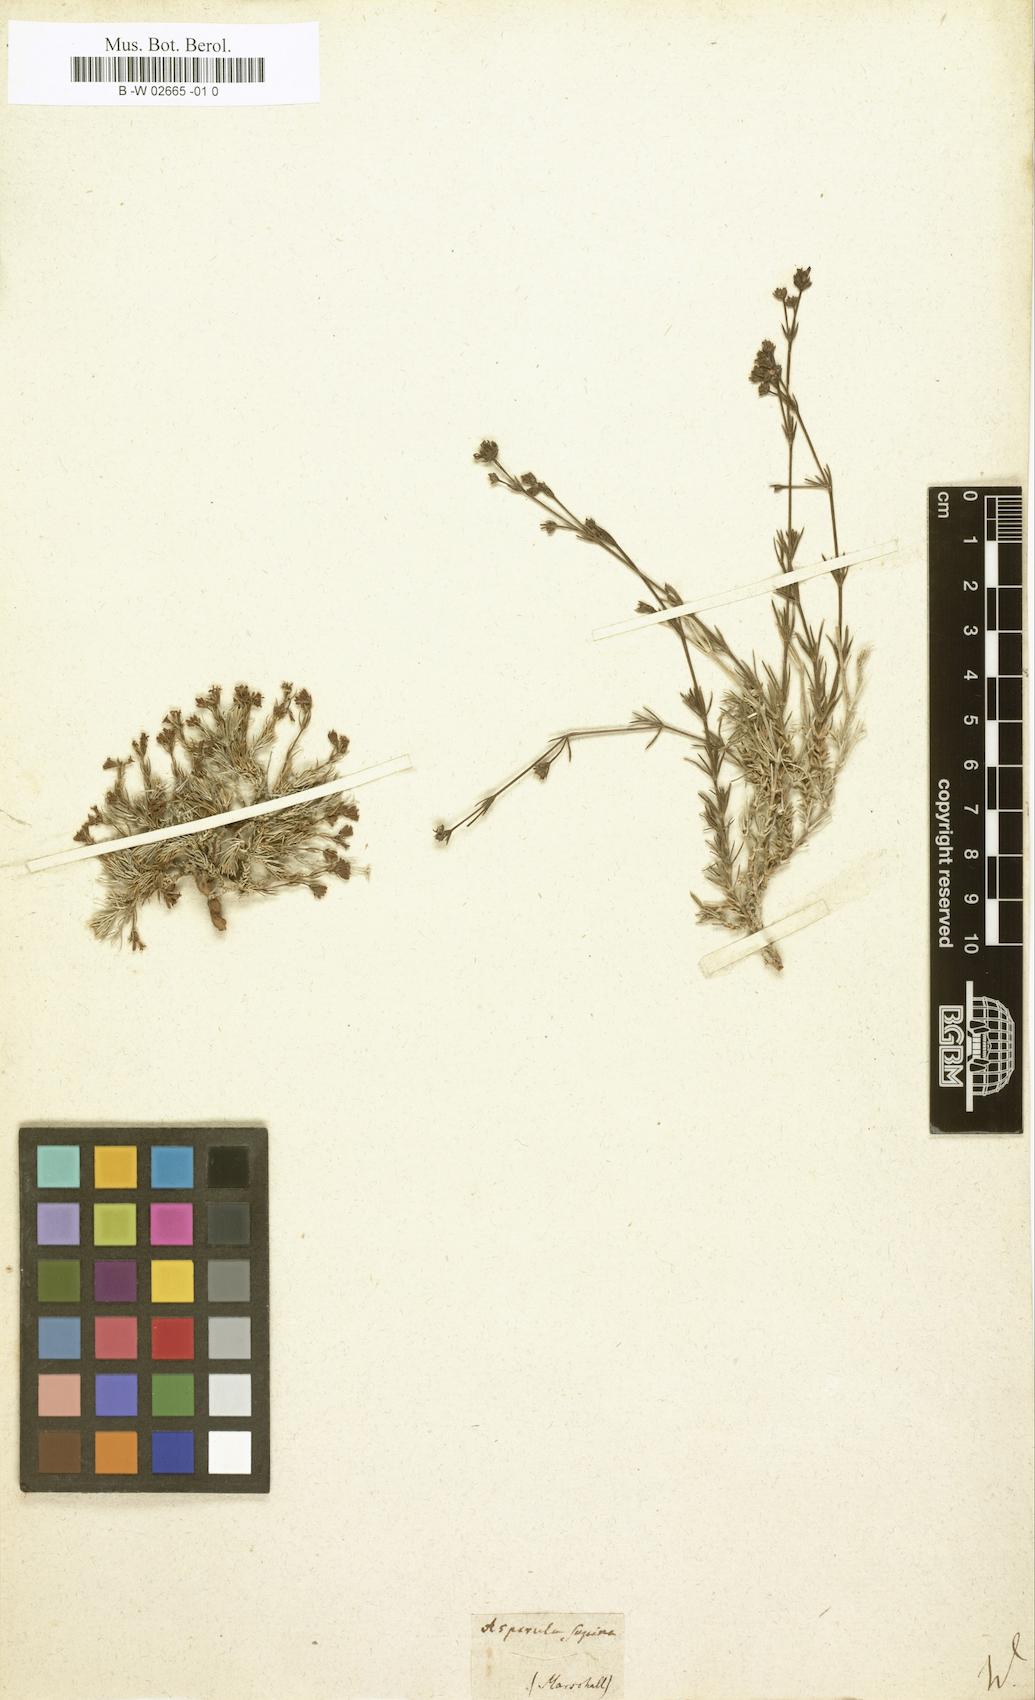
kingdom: Plantae
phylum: Tracheophyta
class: Magnoliopsida
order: Gentianales
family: Rubiaceae
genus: Cynanchica
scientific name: Cynanchica supina
